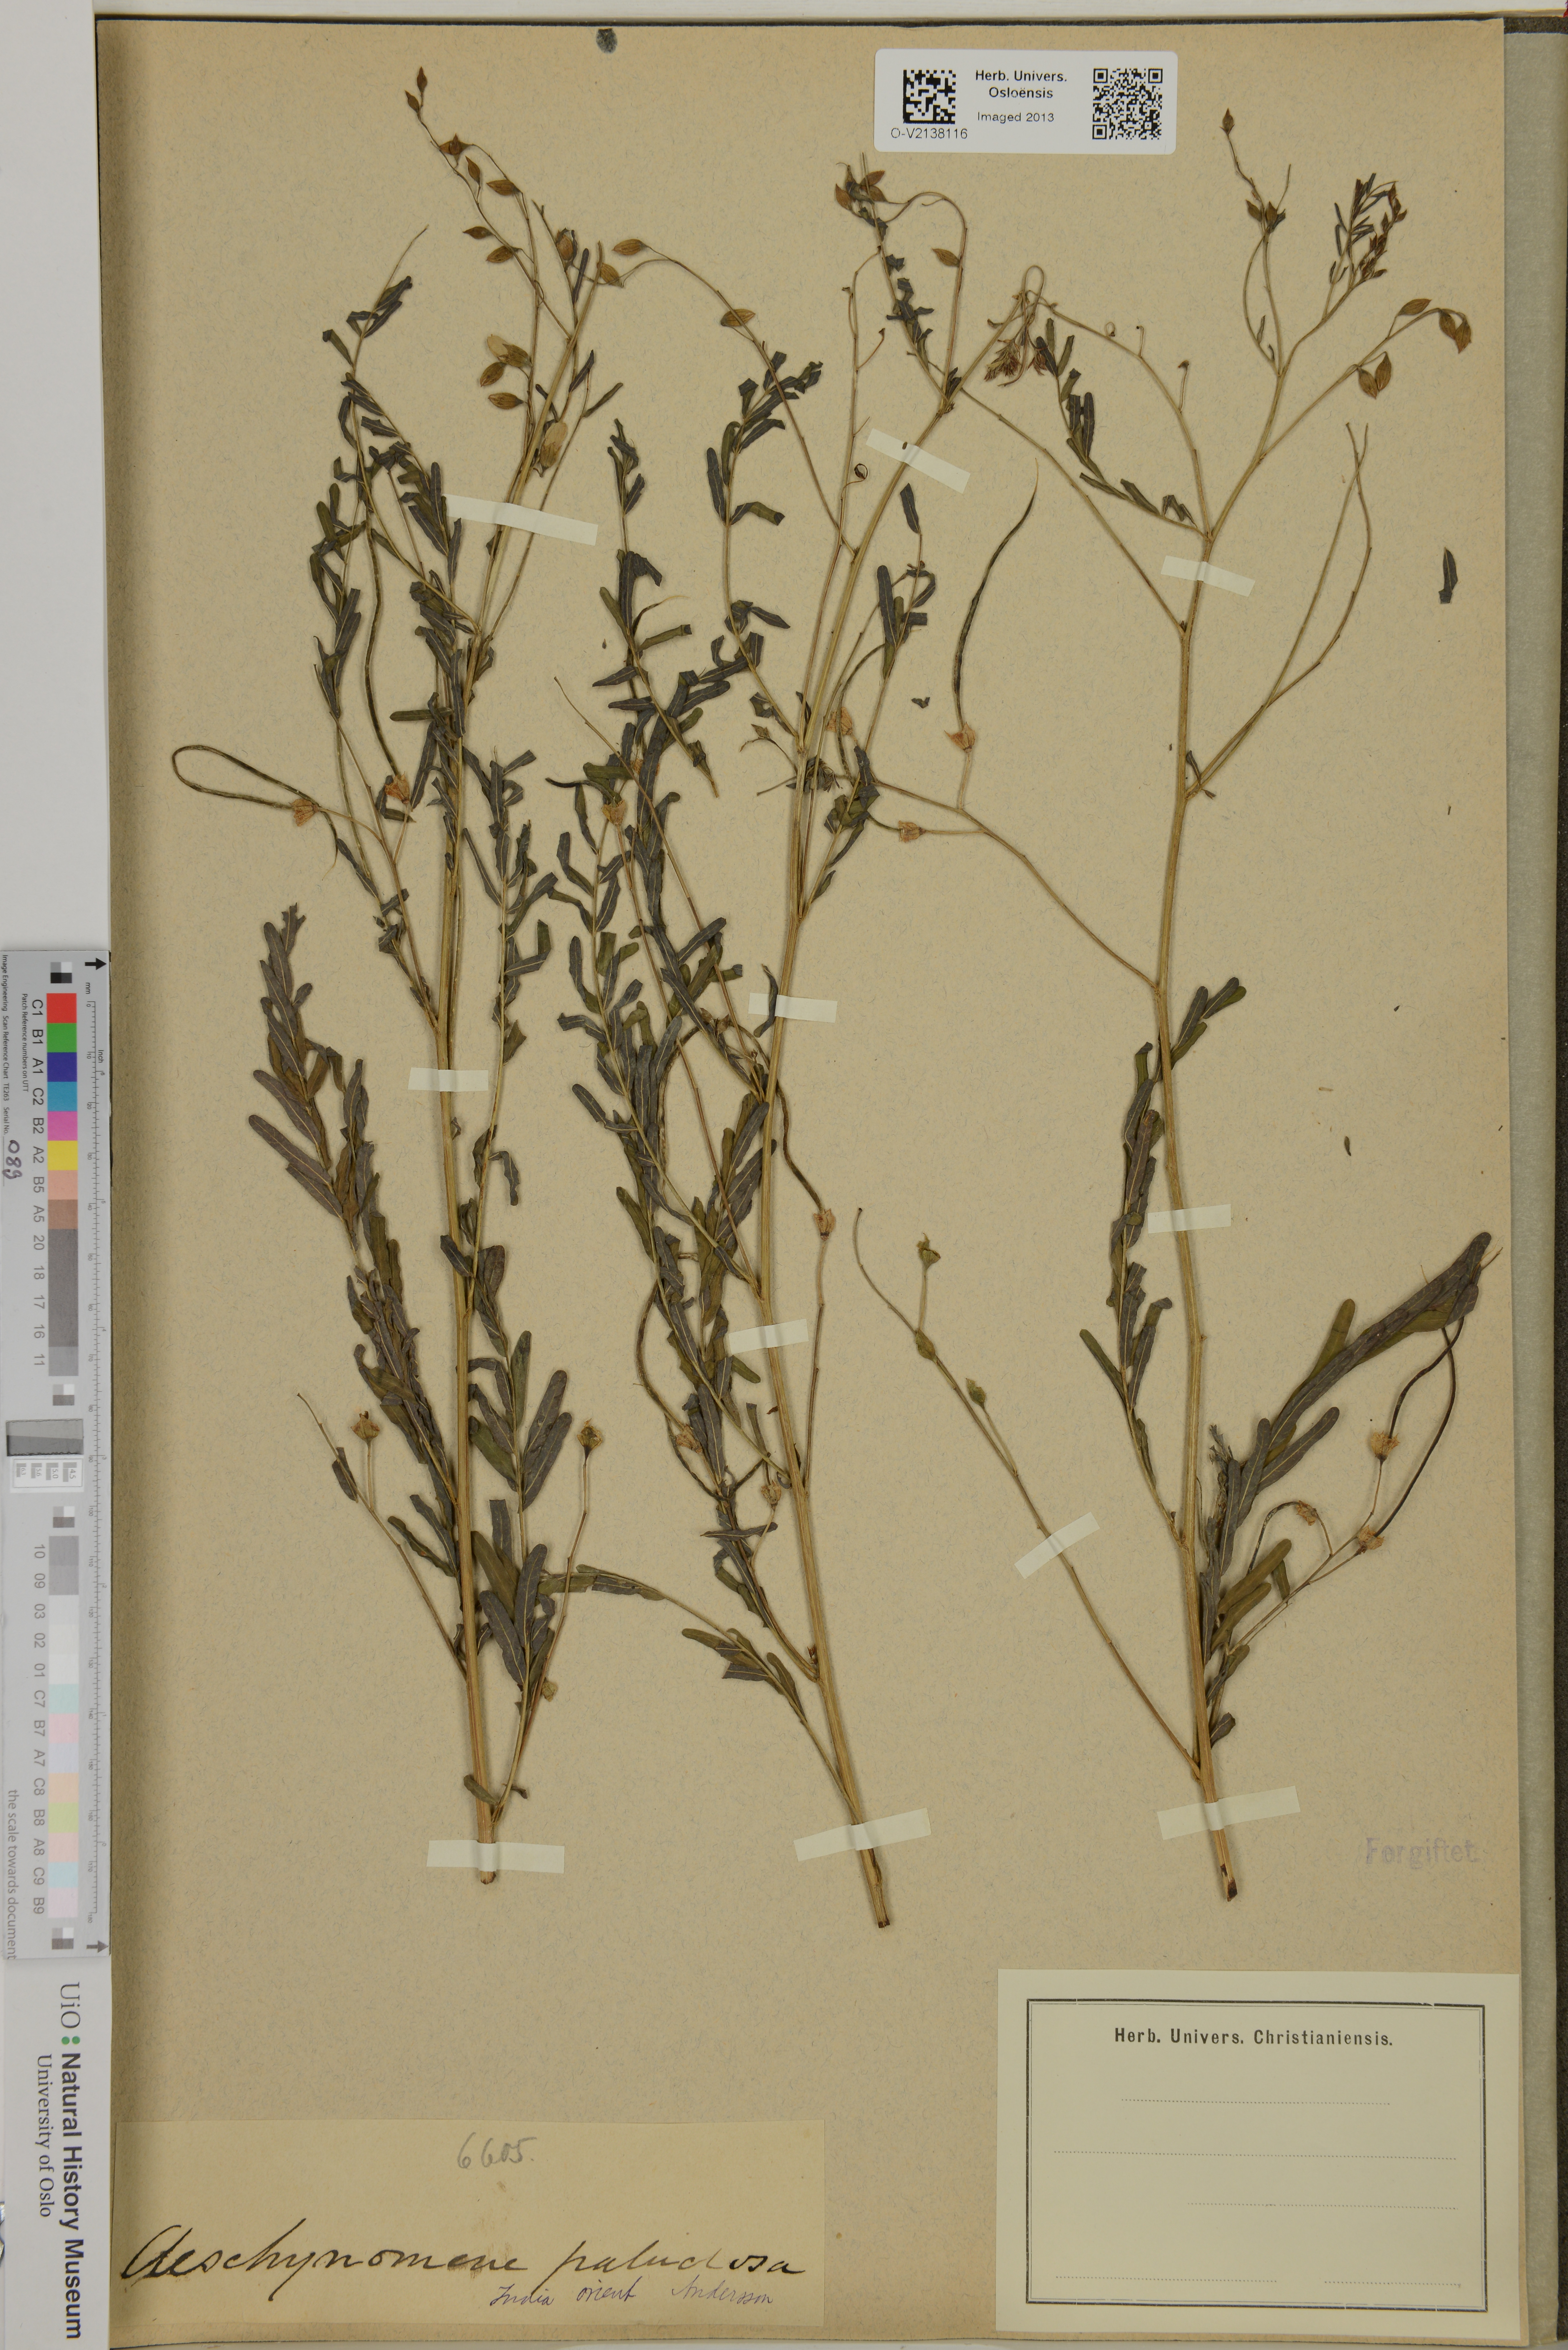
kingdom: Plantae
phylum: Tracheophyta
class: Magnoliopsida
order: Fabales
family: Fabaceae
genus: Sesbania
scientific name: Sesbania bispinosa
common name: Sesbania pea
